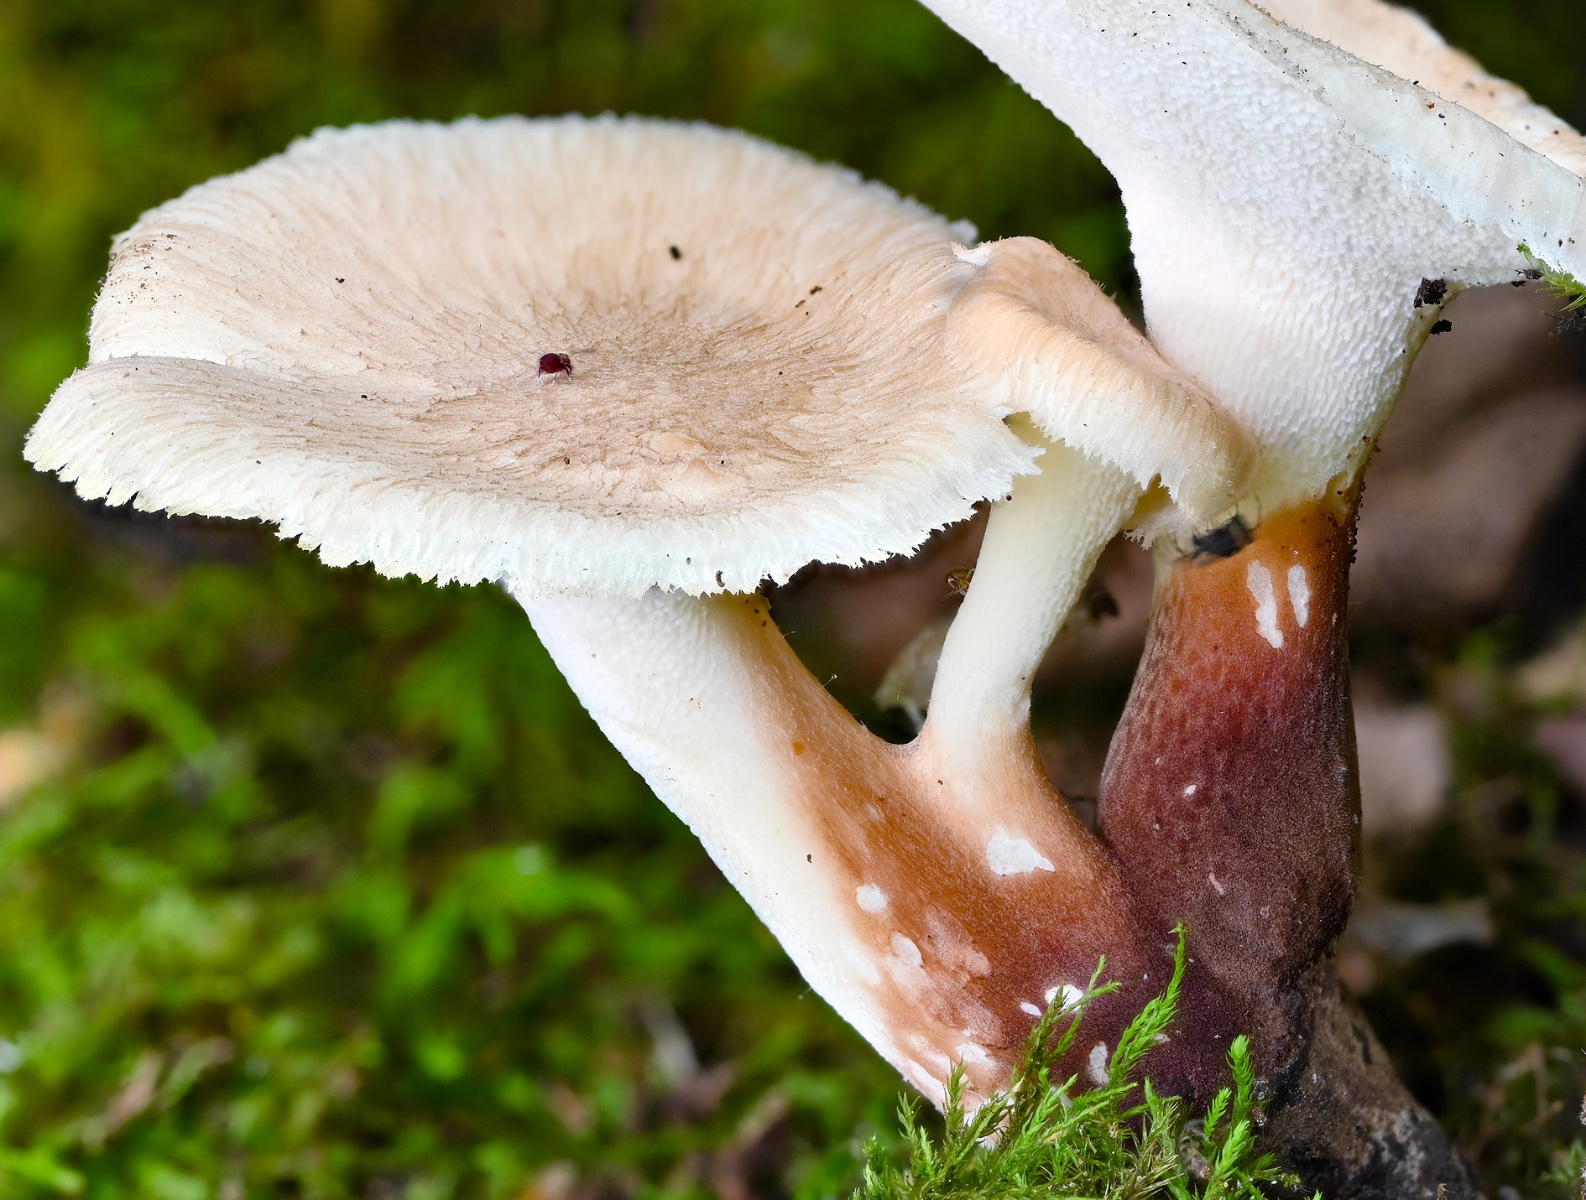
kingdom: Fungi
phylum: Basidiomycota
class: Agaricomycetes
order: Polyporales
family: Polyporaceae
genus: Picipes
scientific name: Picipes melanopus
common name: sortfodet stilkporesvamp
